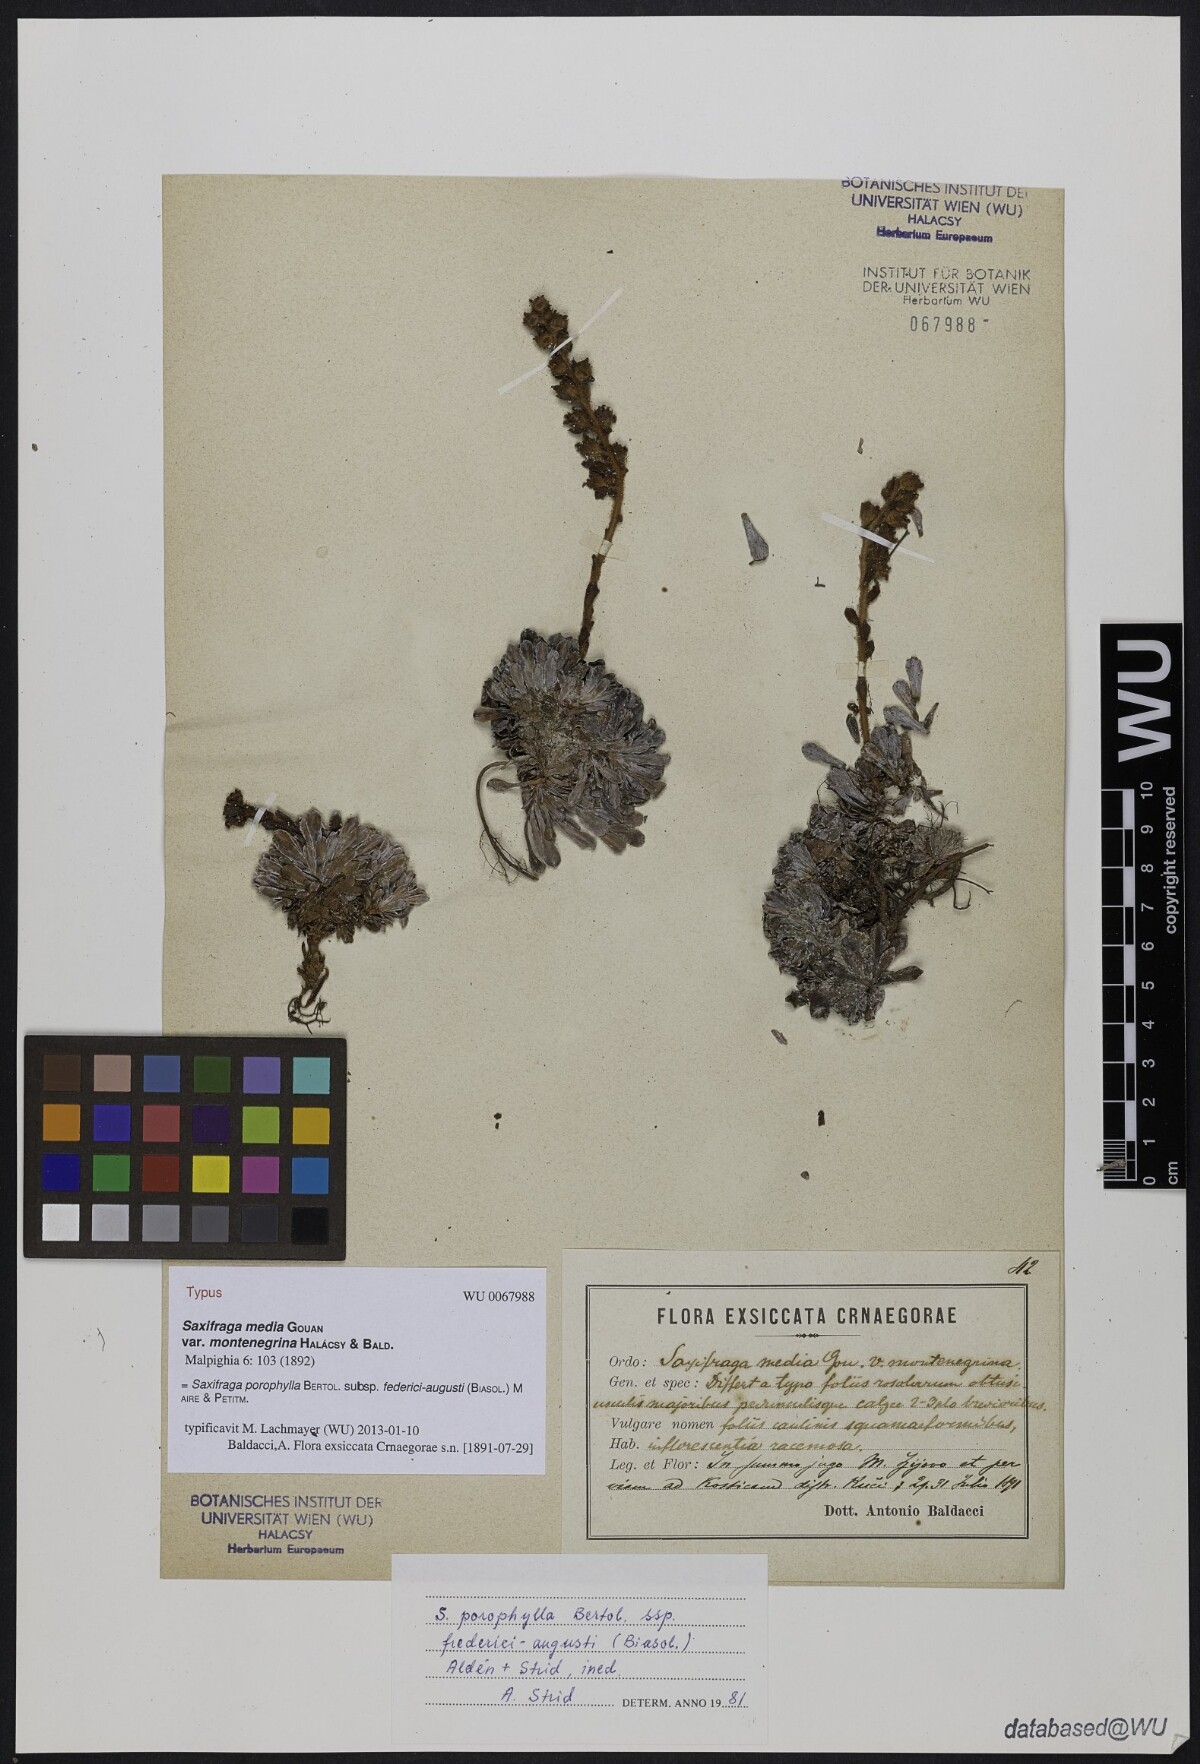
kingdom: Plantae
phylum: Tracheophyta
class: Magnoliopsida
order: Saxifragales
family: Saxifragaceae
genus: Saxifraga
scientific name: Saxifraga media
